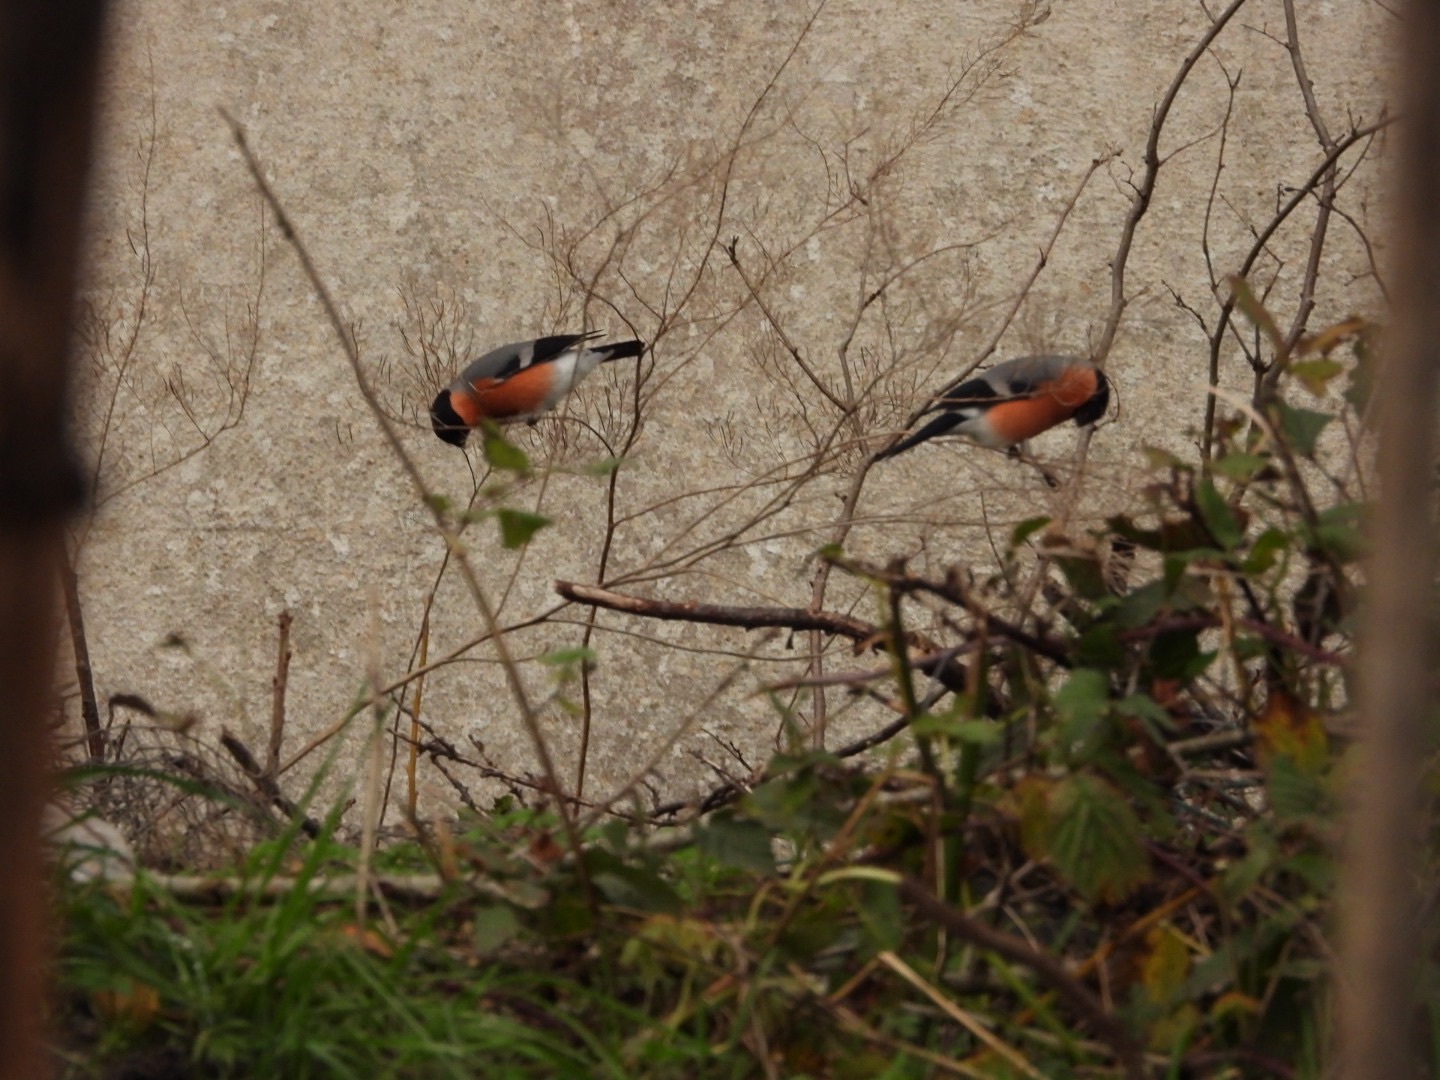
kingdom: Animalia
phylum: Chordata
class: Aves
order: Passeriformes
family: Fringillidae
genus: Pyrrhula
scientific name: Pyrrhula pyrrhula
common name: Dompap
